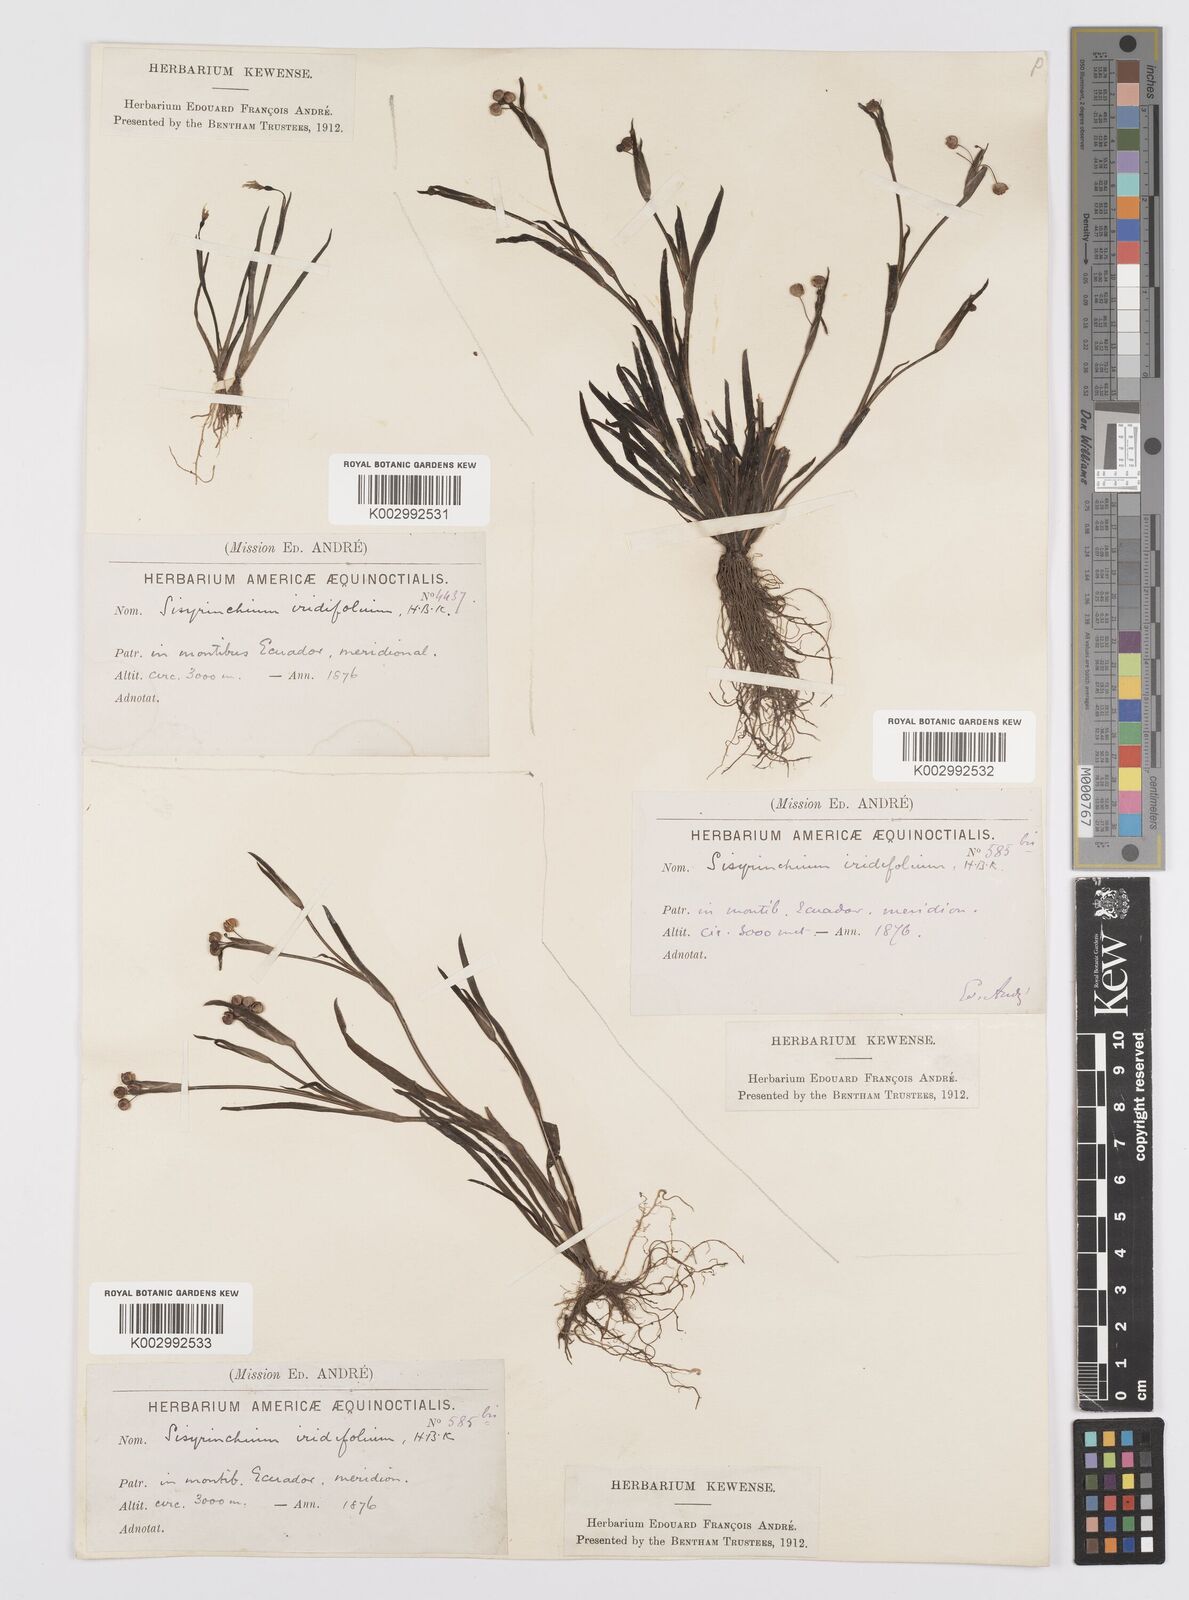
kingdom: Plantae
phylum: Tracheophyta
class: Liliopsida
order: Asparagales
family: Iridaceae
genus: Sisyrinchium
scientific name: Sisyrinchium micranthum
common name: Bermuda pigroot
